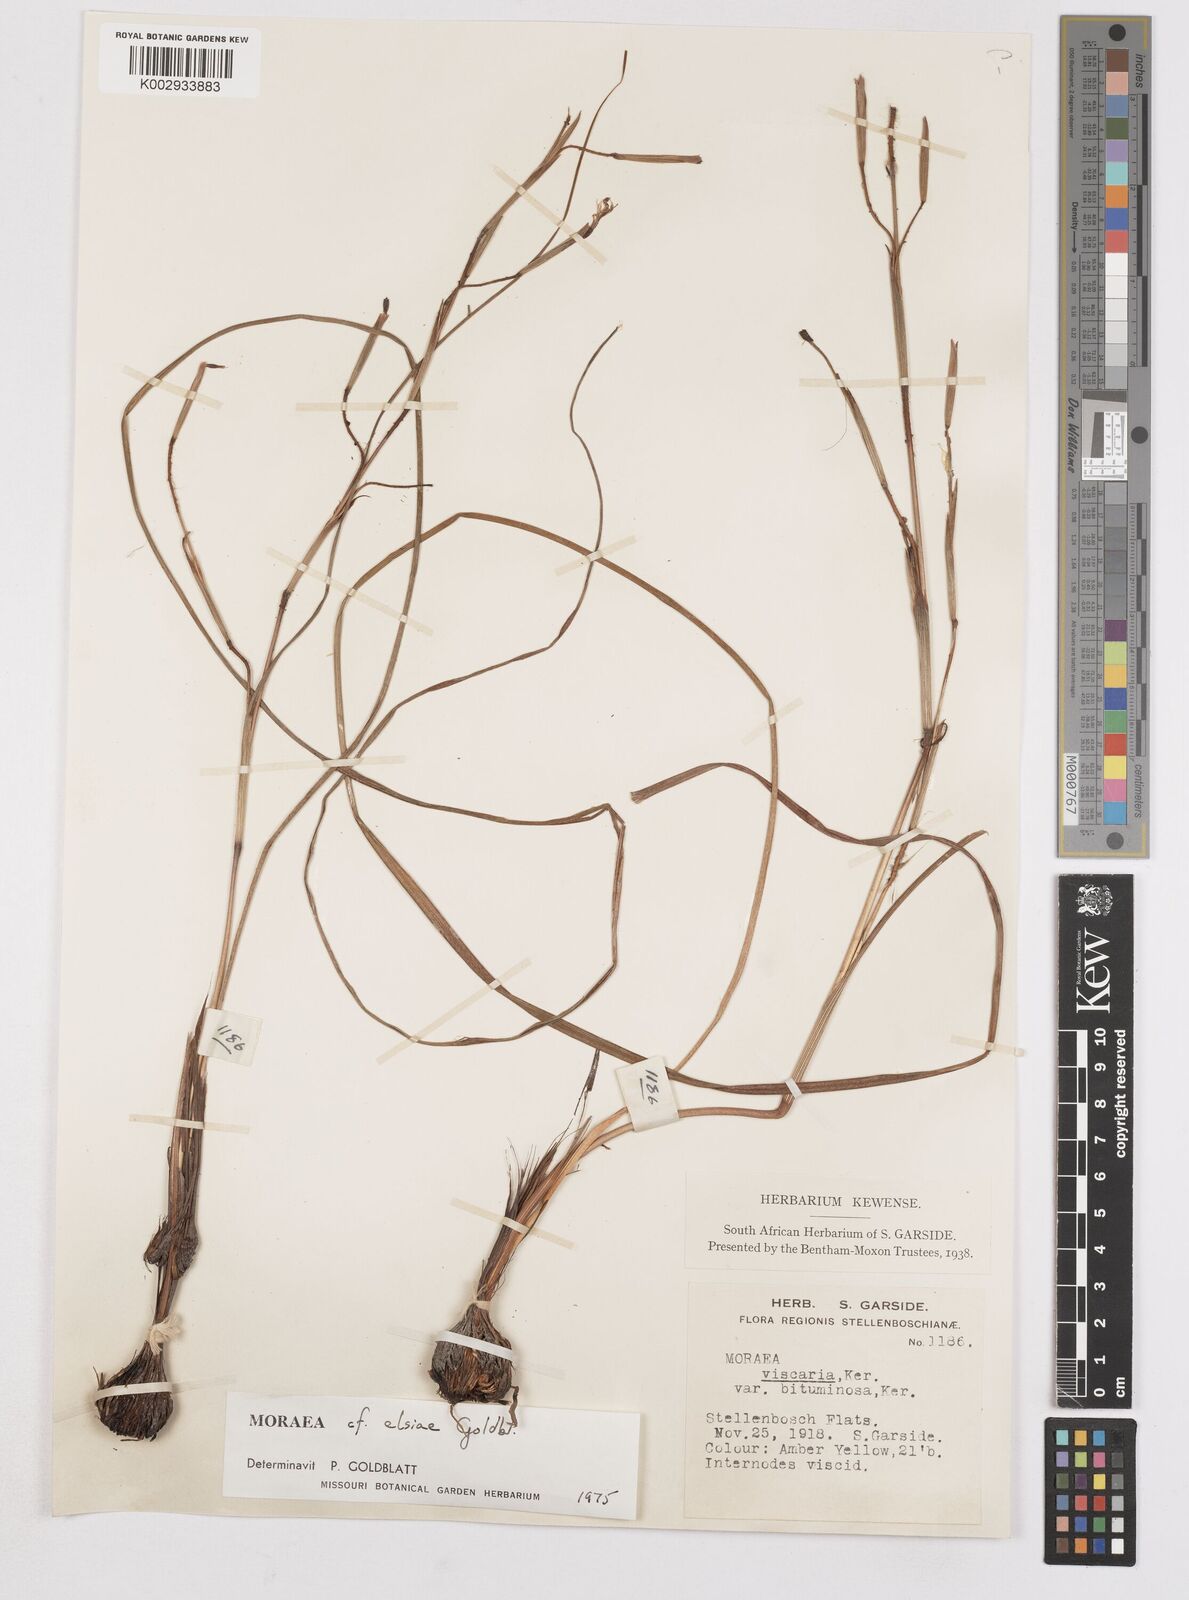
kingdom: Plantae
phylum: Tracheophyta
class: Liliopsida
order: Asparagales
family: Iridaceae
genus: Moraea
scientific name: Moraea elsiae
